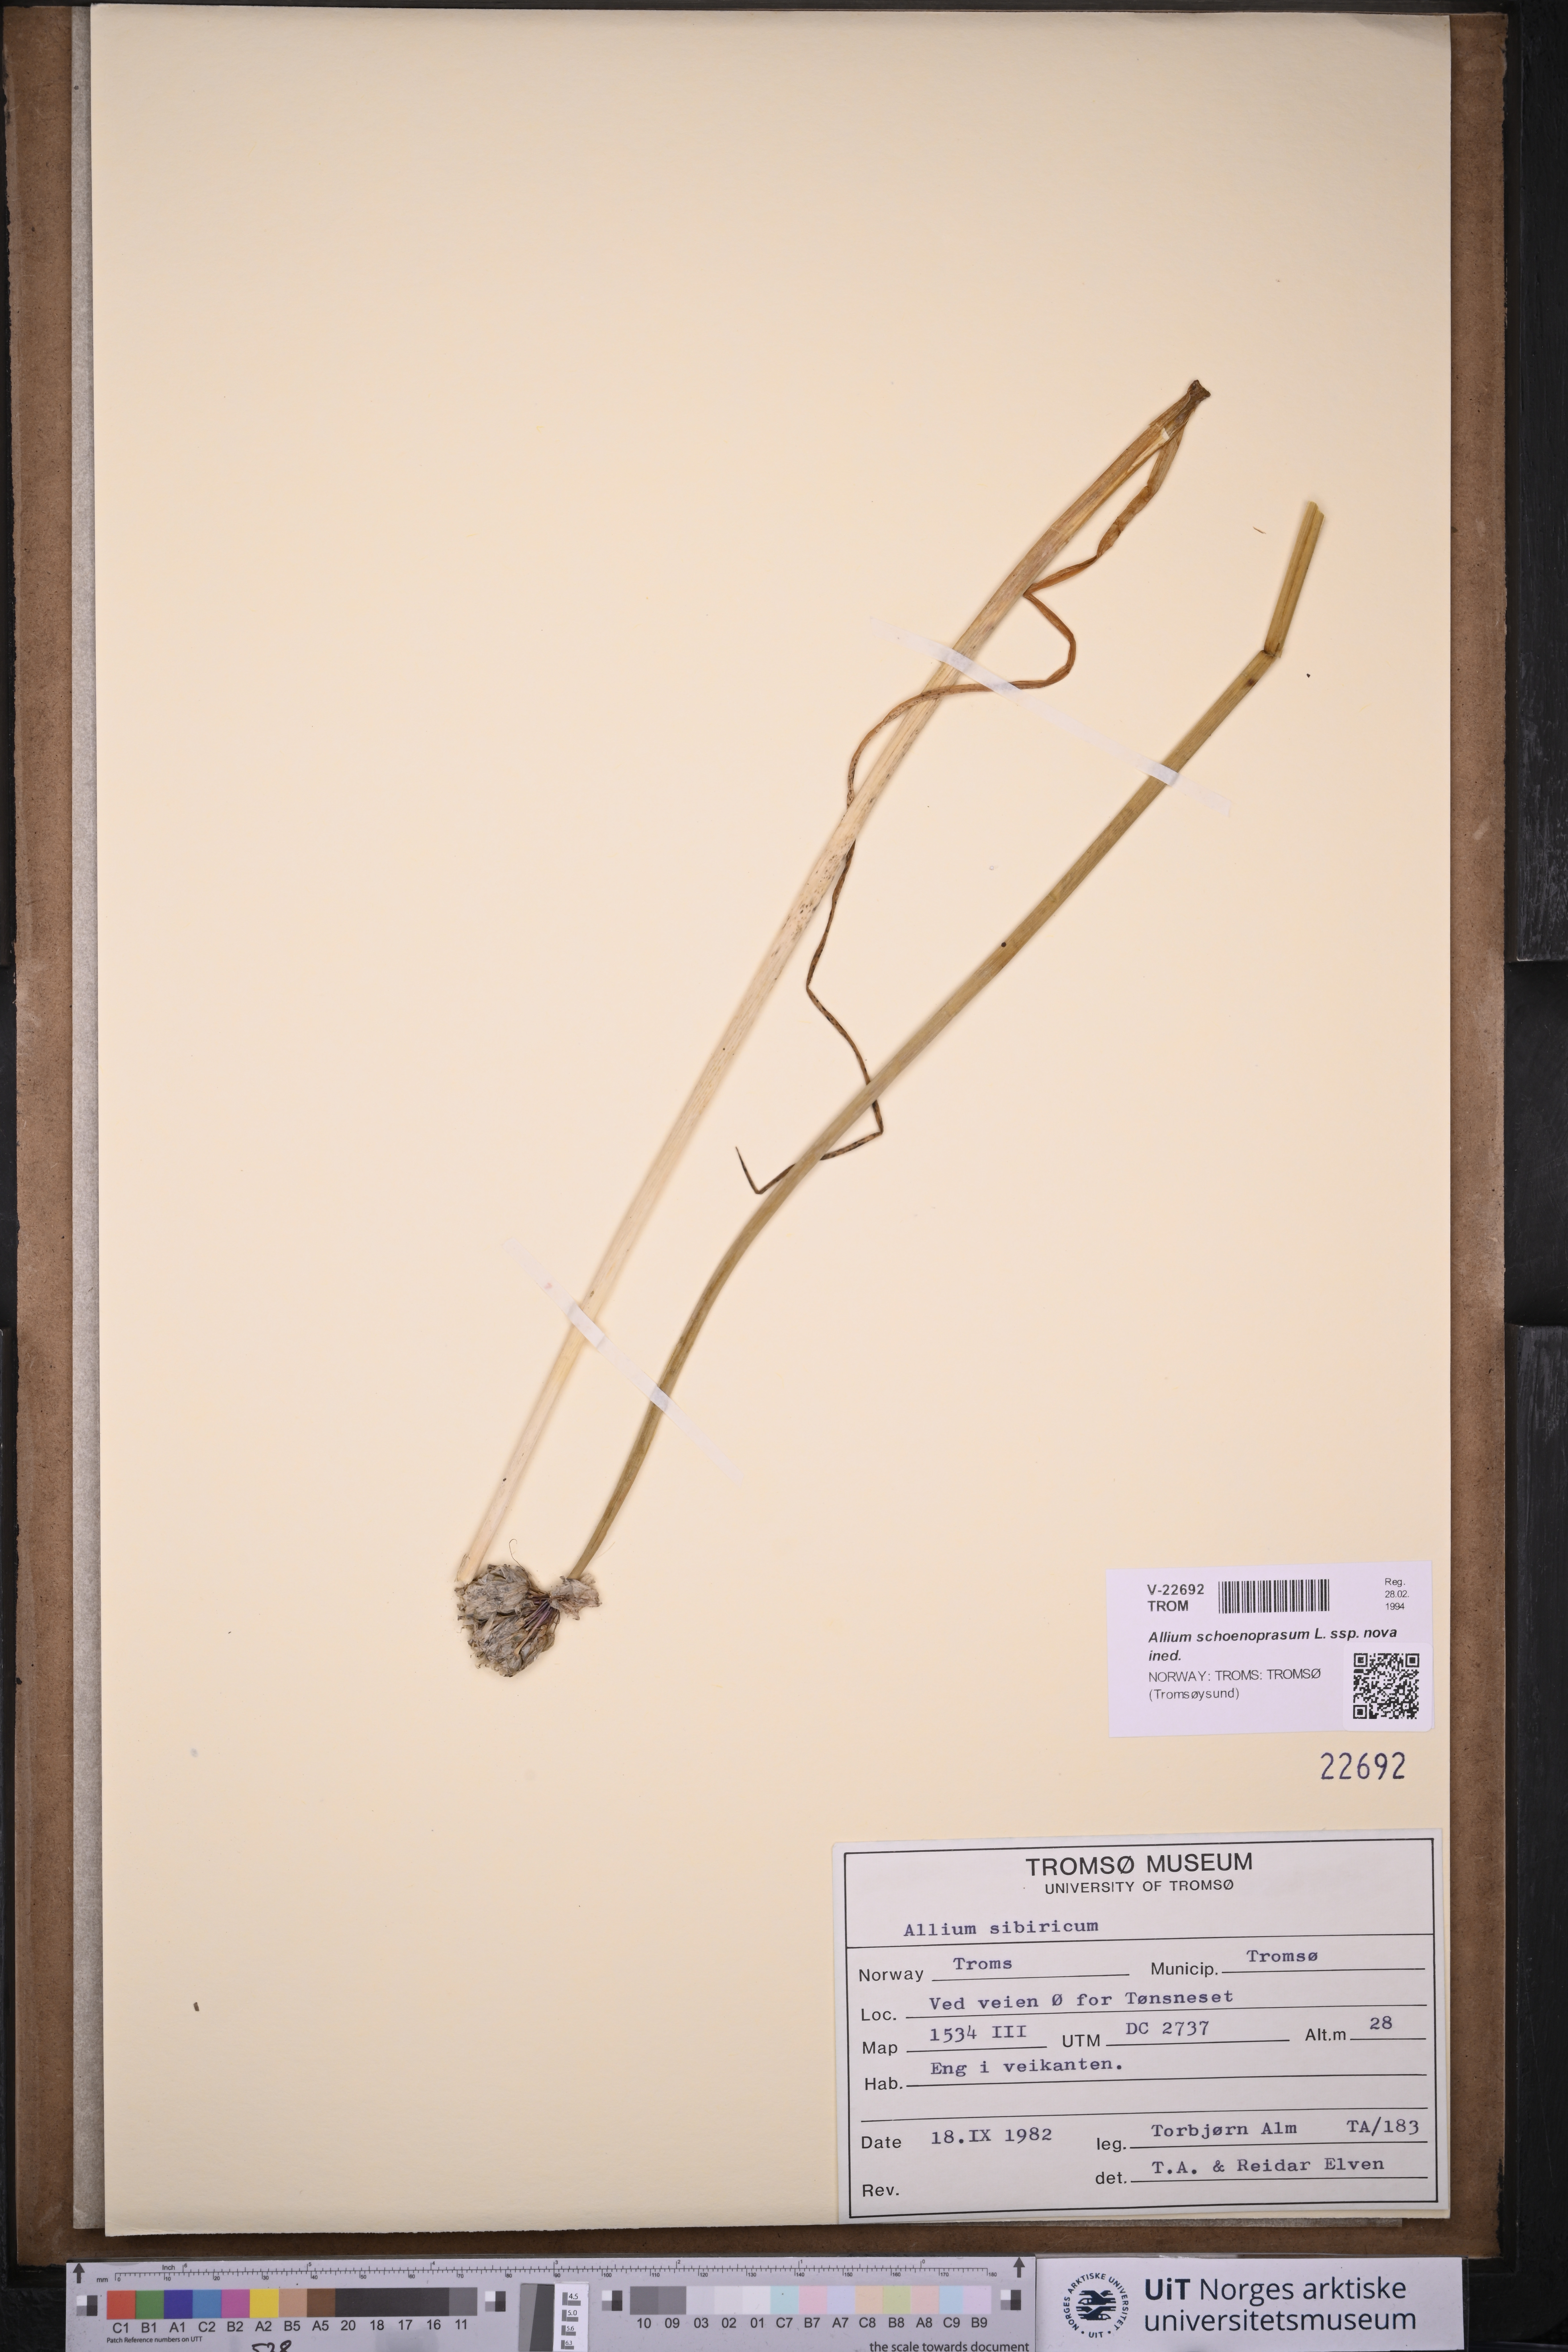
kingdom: Plantae
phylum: Tracheophyta
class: Liliopsida
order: Asparagales
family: Amaryllidaceae
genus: Allium
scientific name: Allium schoenoprasum
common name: Chives
